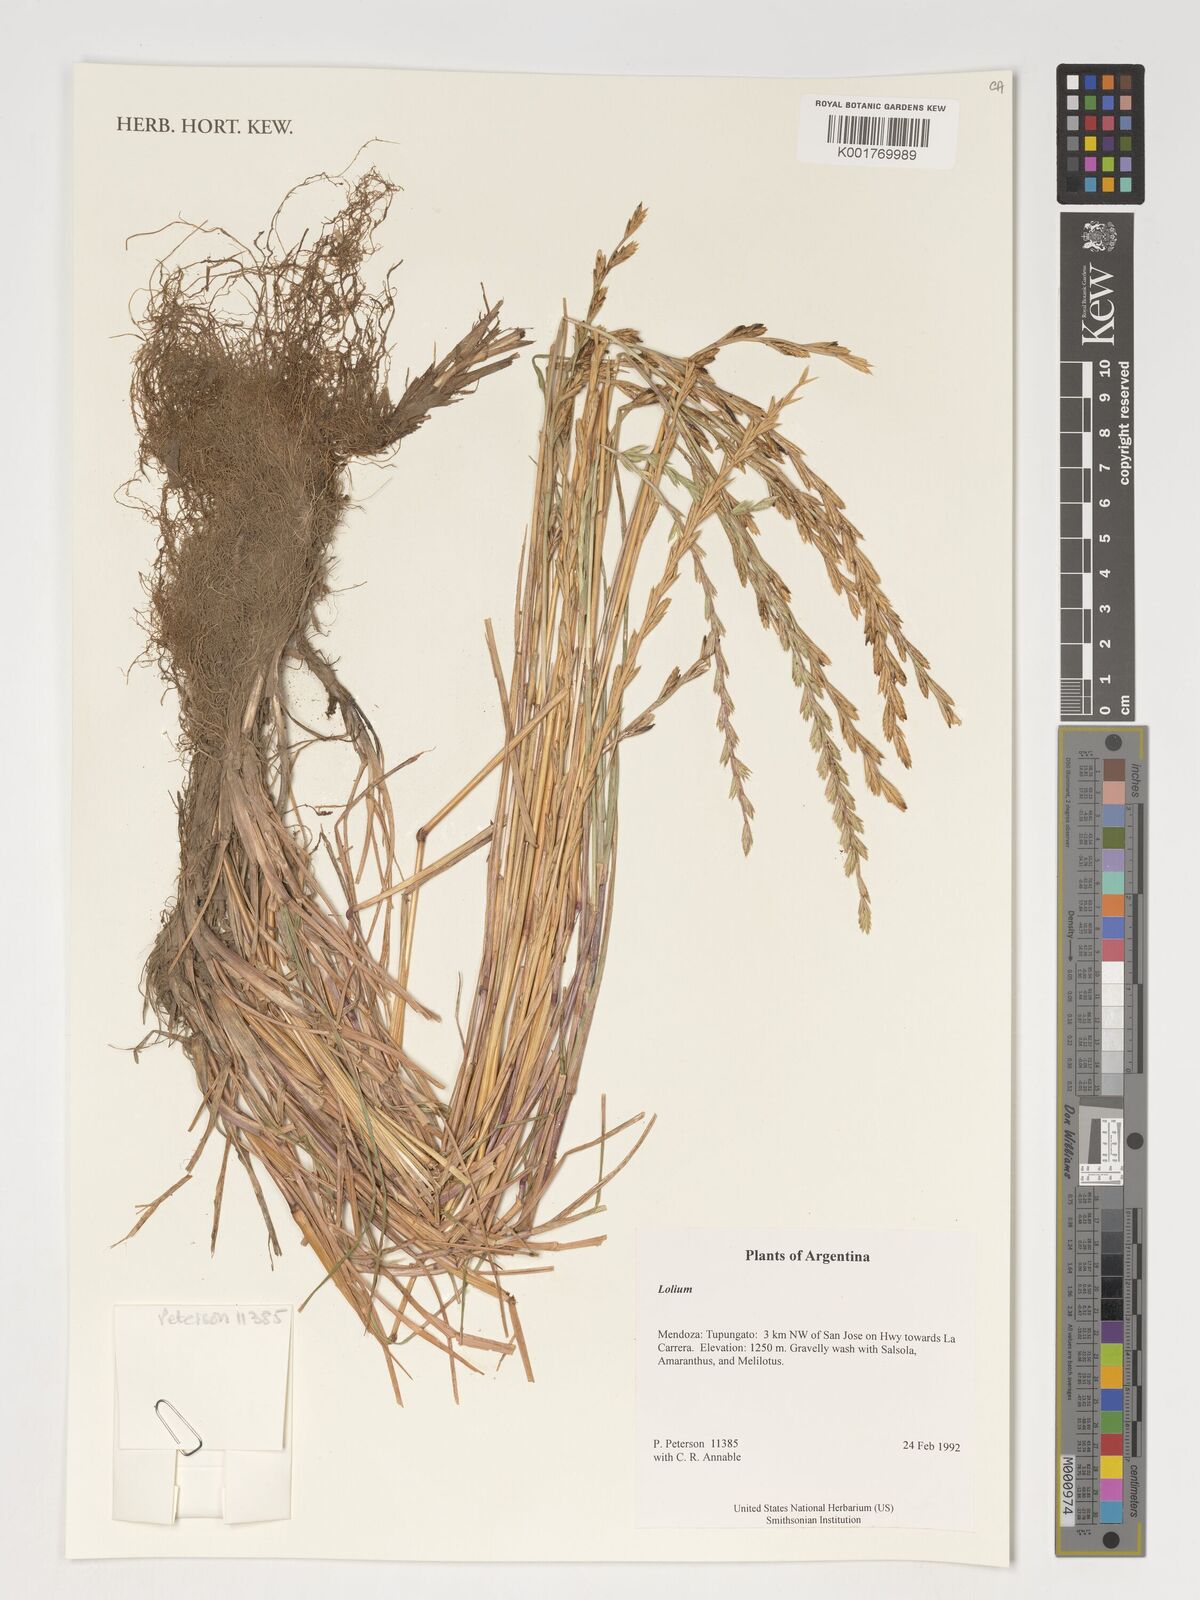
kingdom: Plantae
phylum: Tracheophyta
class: Liliopsida
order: Poales
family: Poaceae
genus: Lolium
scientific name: Lolium
